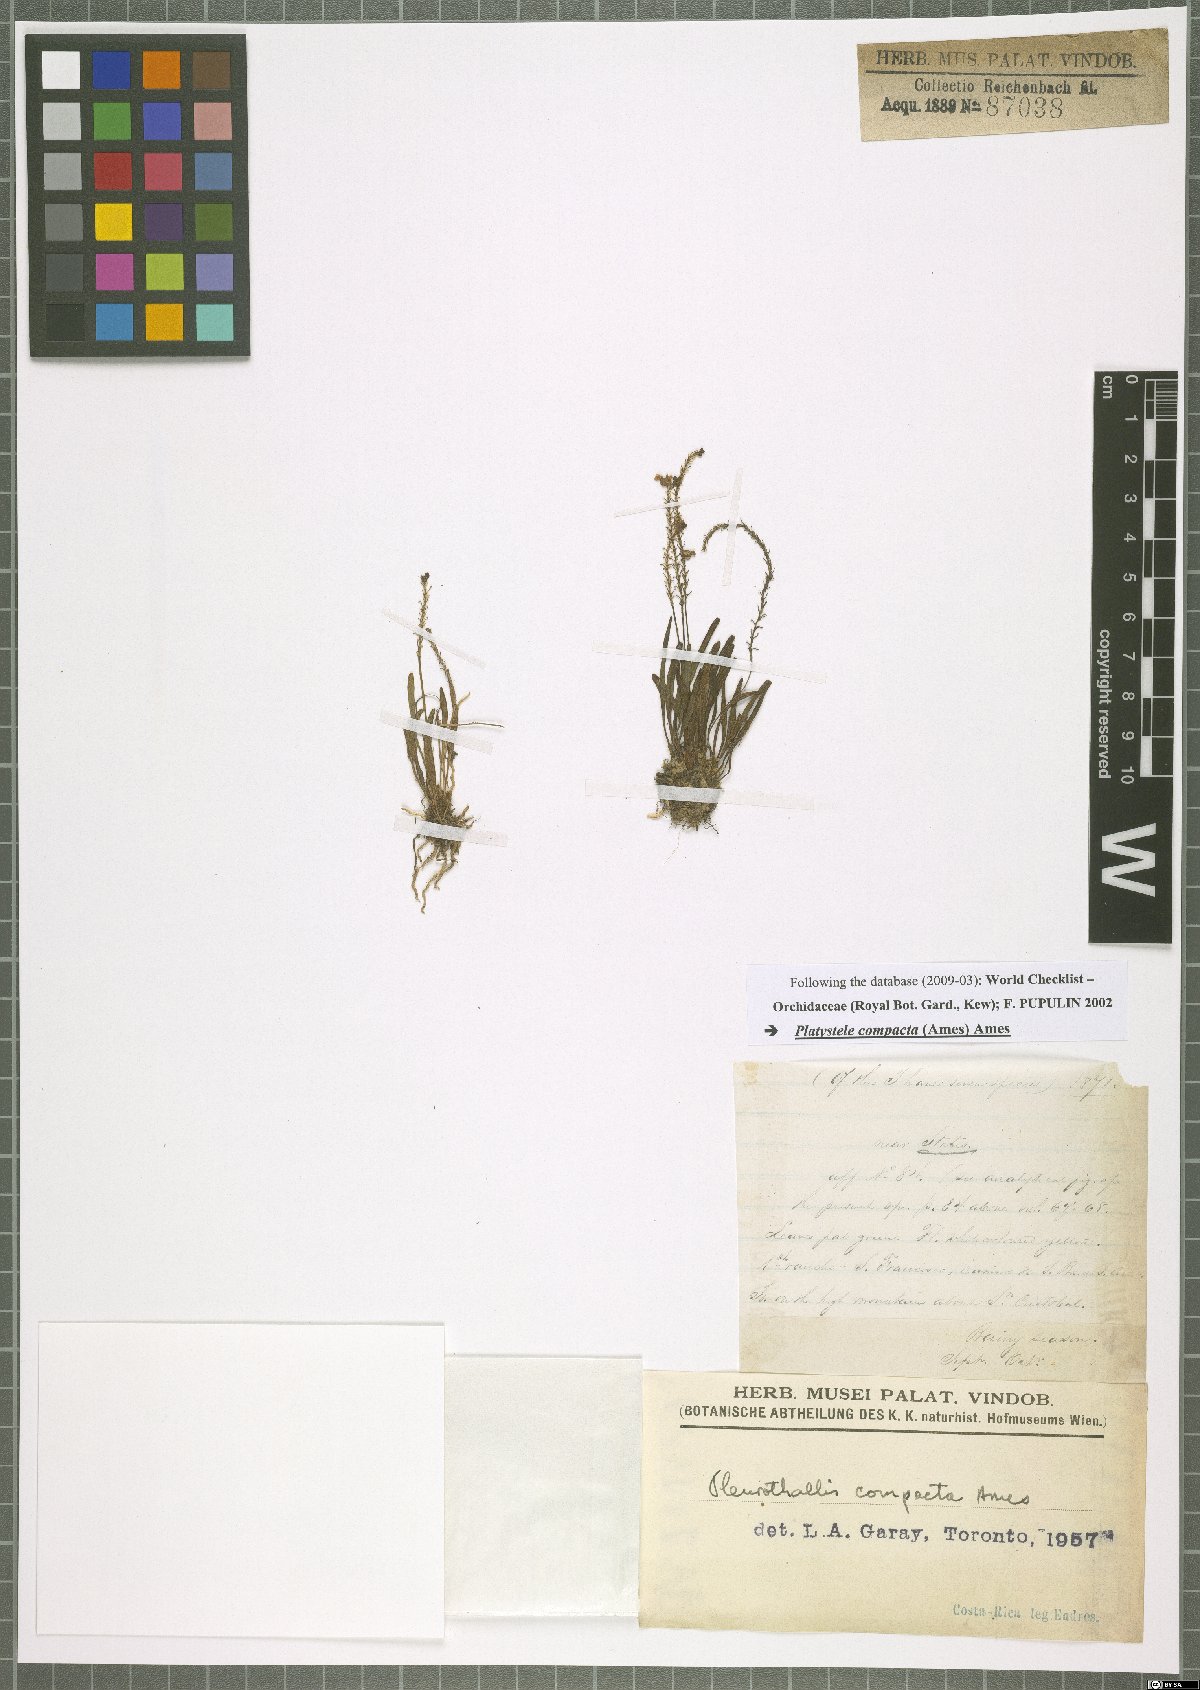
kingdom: Plantae
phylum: Tracheophyta
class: Liliopsida
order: Asparagales
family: Orchidaceae
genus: Platystele
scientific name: Platystele compacta
